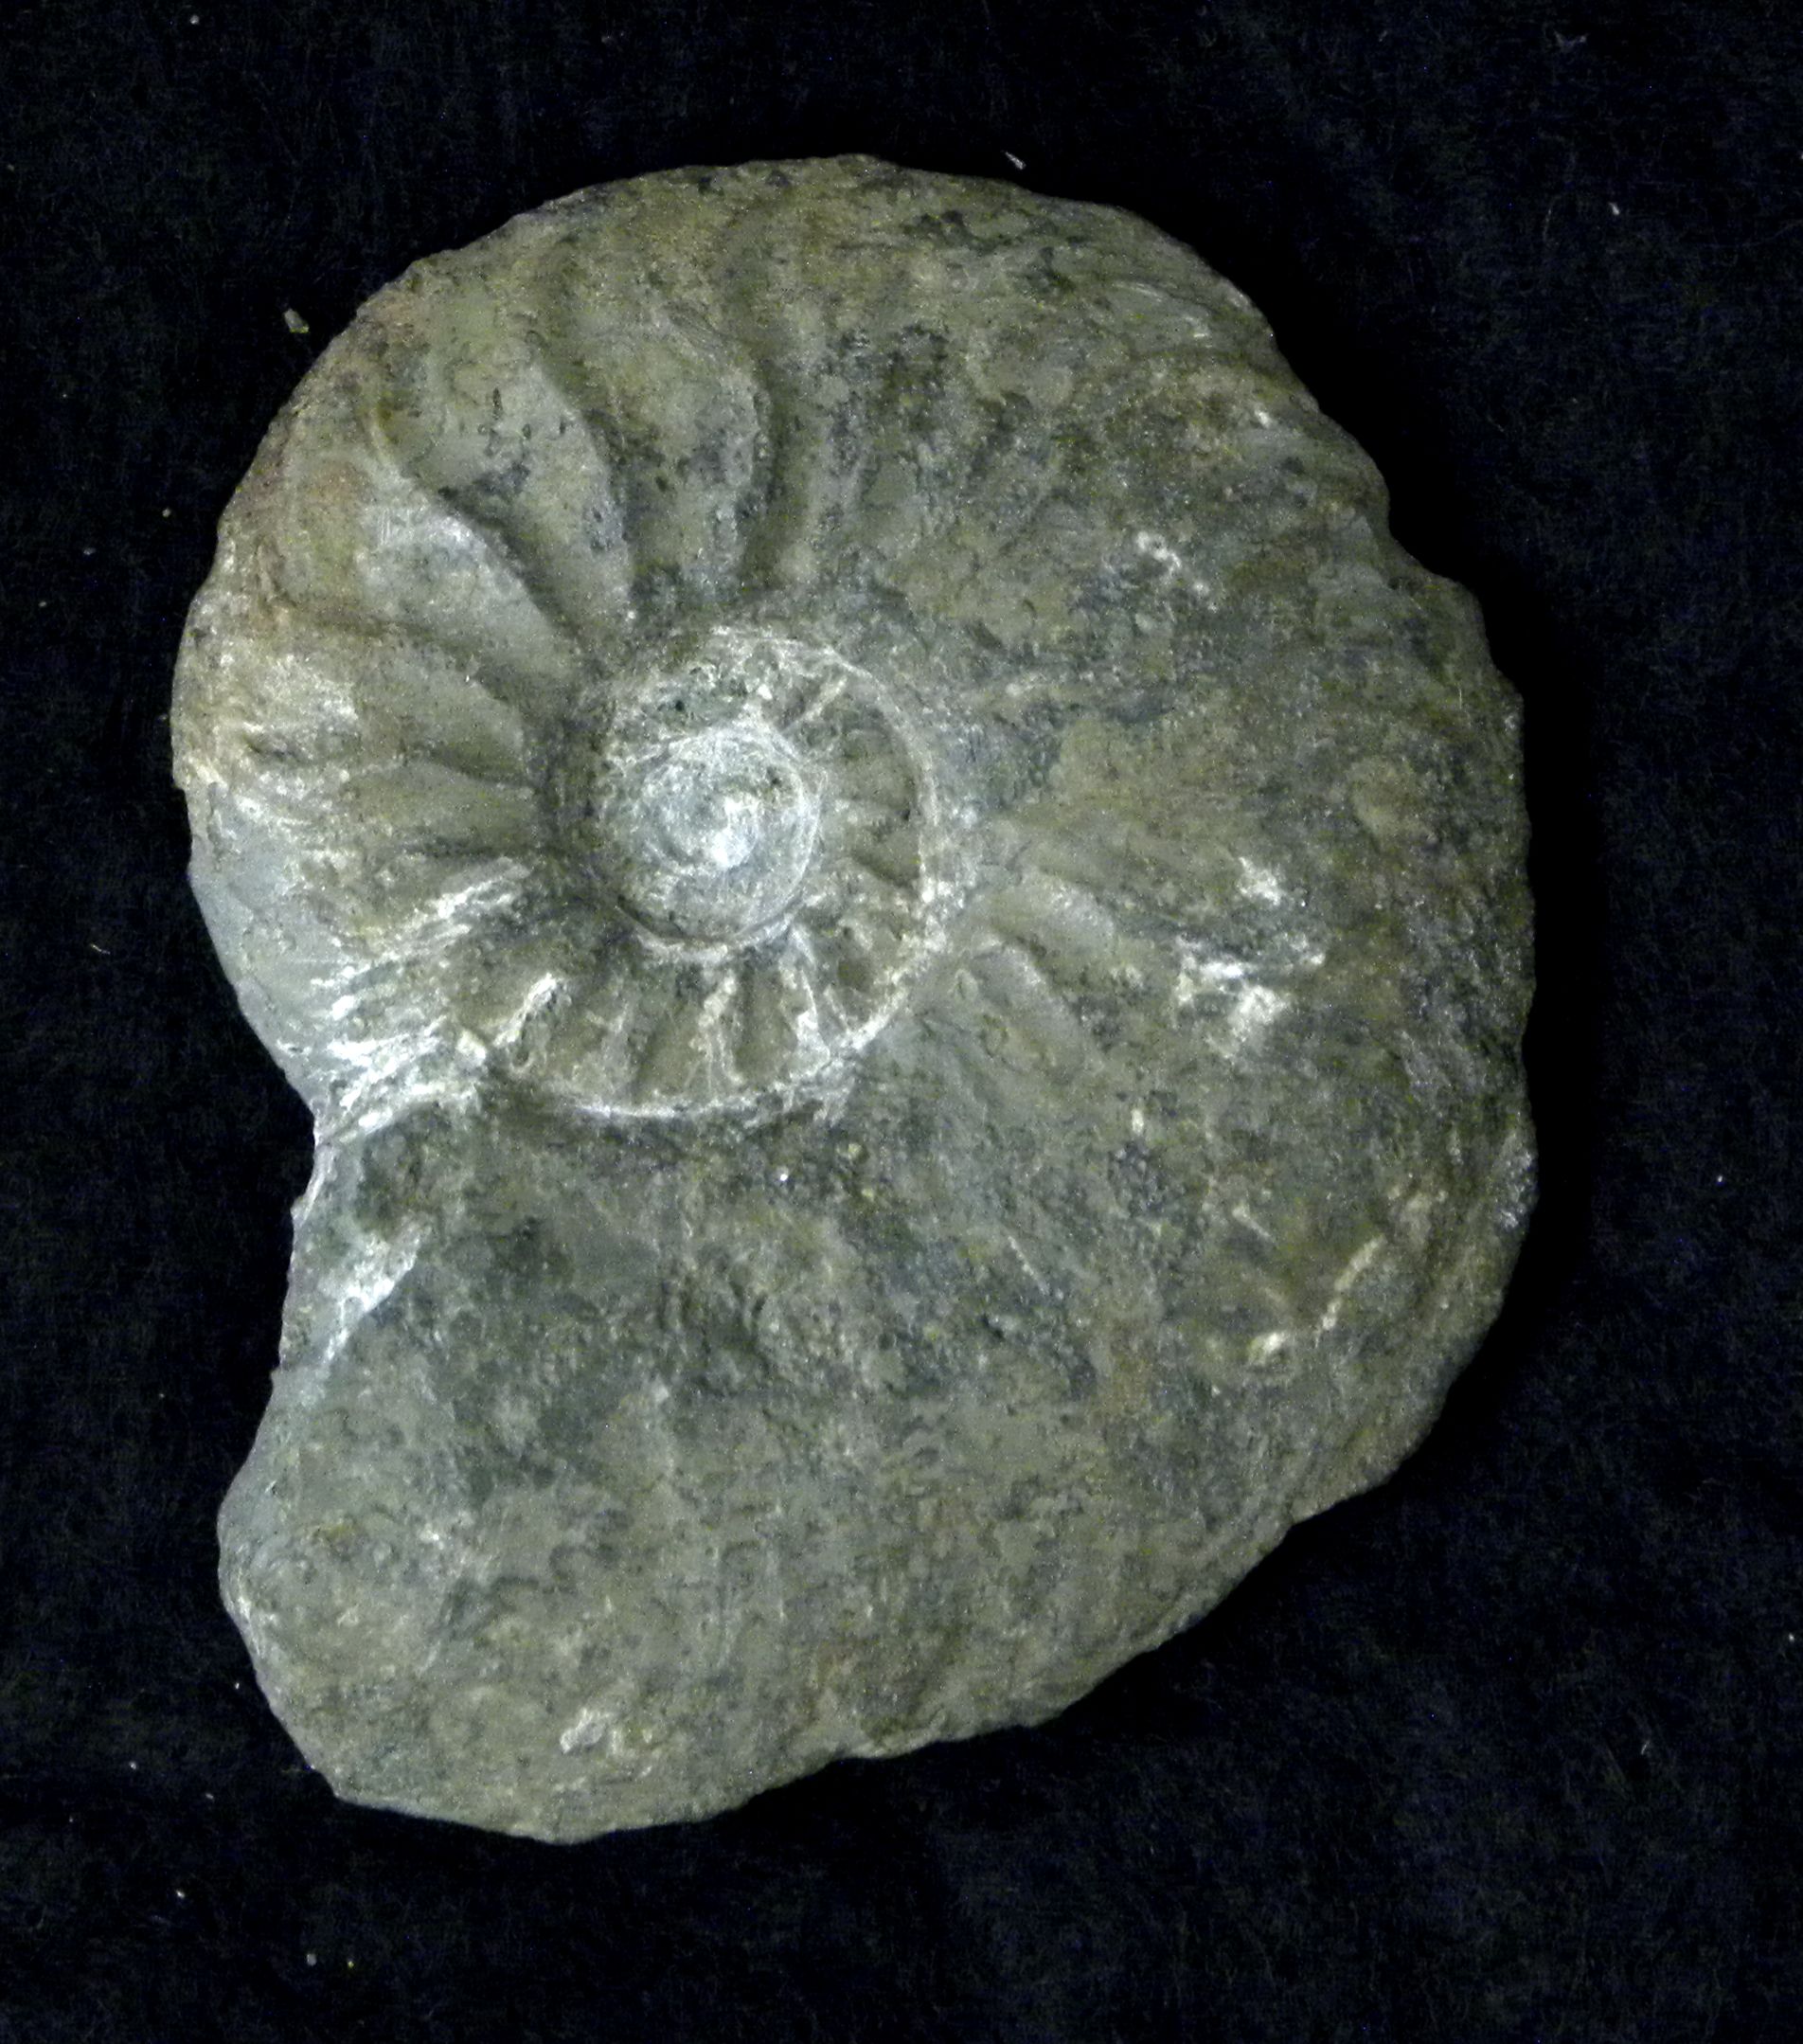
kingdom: Animalia
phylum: Mollusca
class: Cephalopoda
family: Hildoceratidae
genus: Cotteswoldia
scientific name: Cotteswoldia
